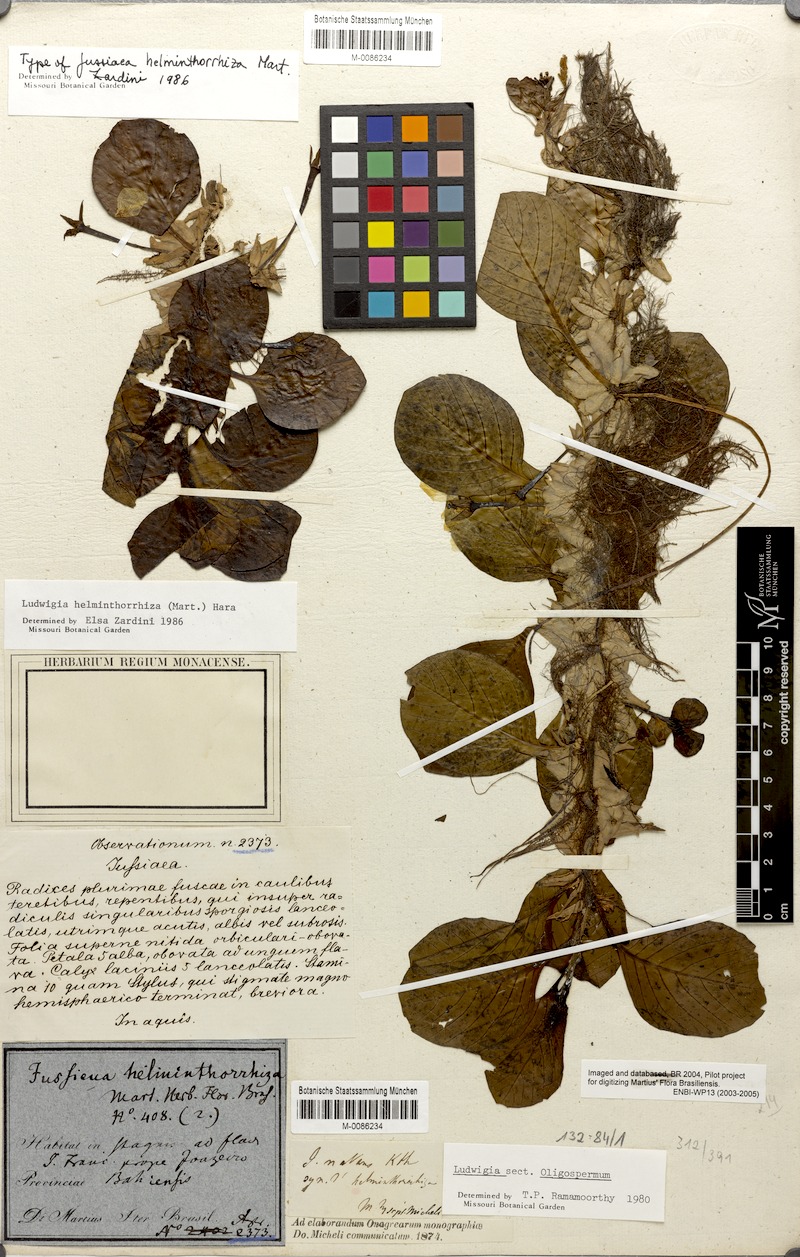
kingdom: Plantae
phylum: Tracheophyta
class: Magnoliopsida
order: Myrtales
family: Onagraceae
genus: Ludwigia
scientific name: Ludwigia helminthorrhiza
